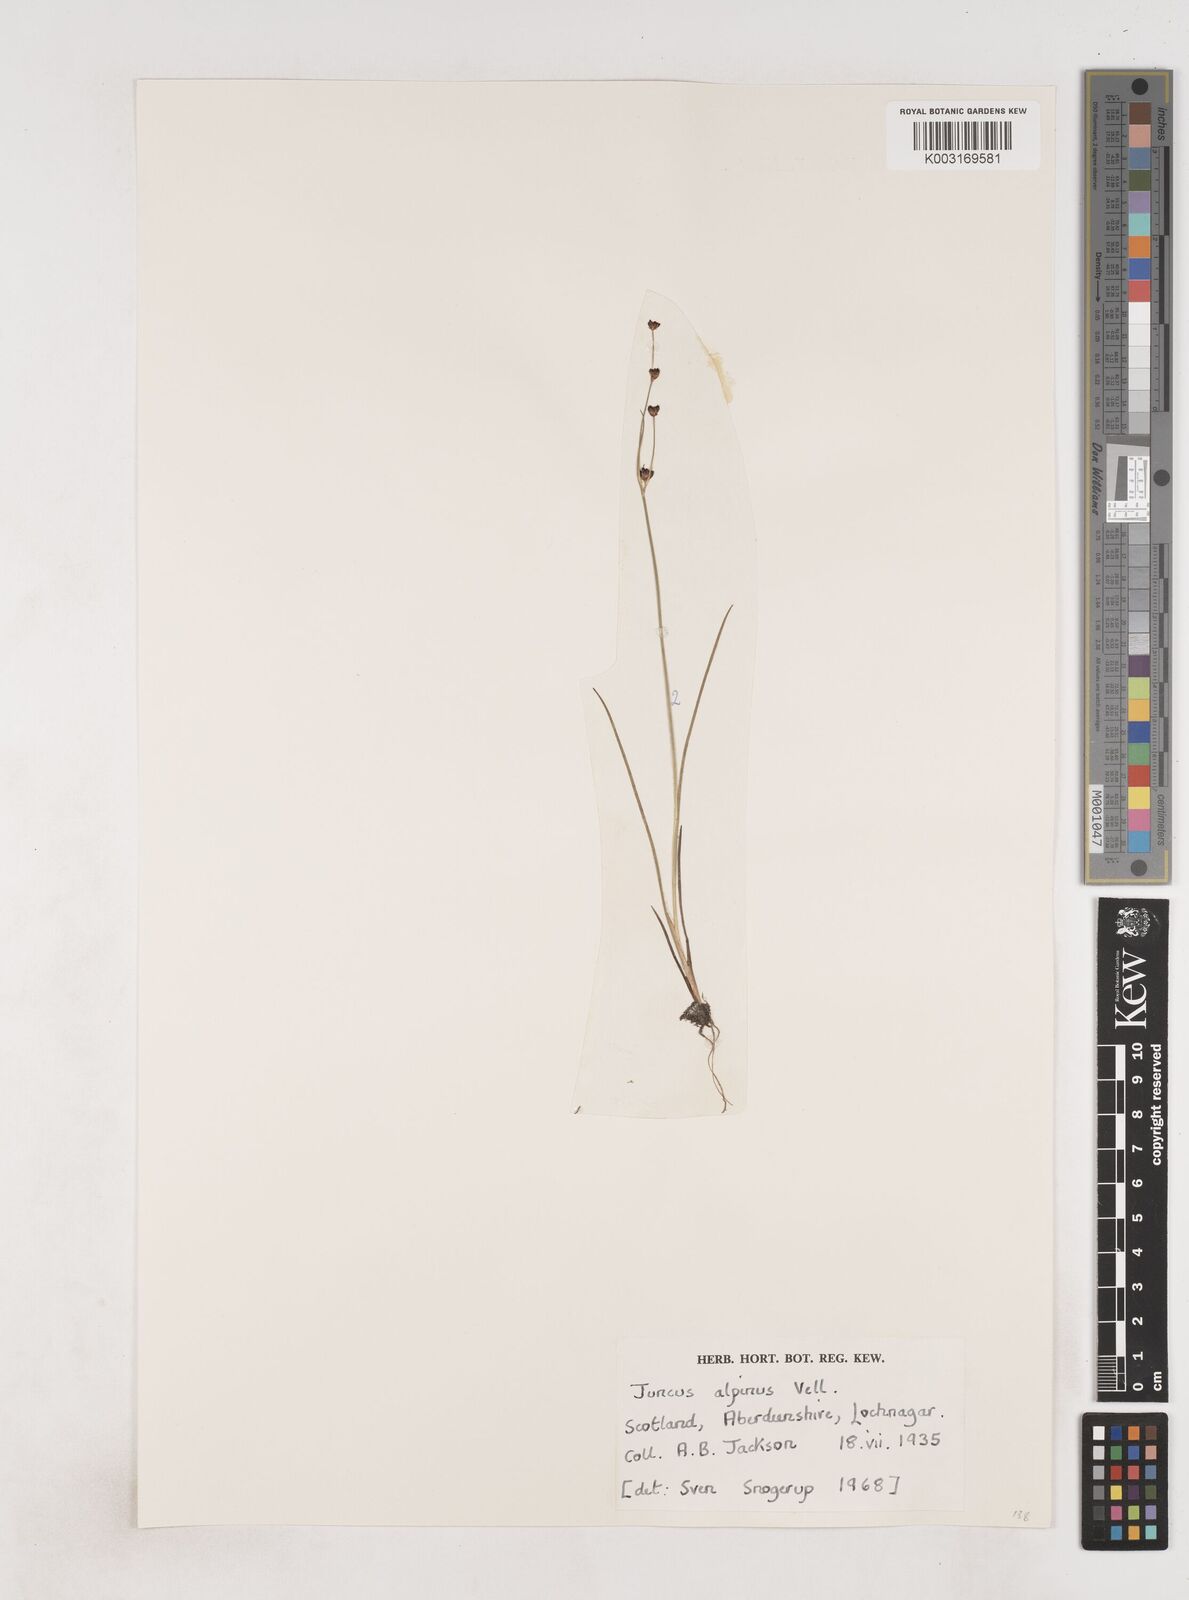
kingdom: Plantae
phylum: Tracheophyta
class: Liliopsida
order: Poales
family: Juncaceae
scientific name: Juncaceae
